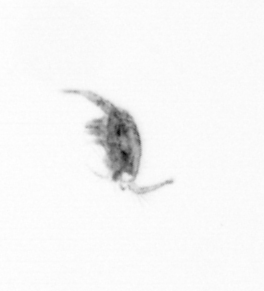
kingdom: Animalia
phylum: Arthropoda
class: Copepoda
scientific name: Copepoda
